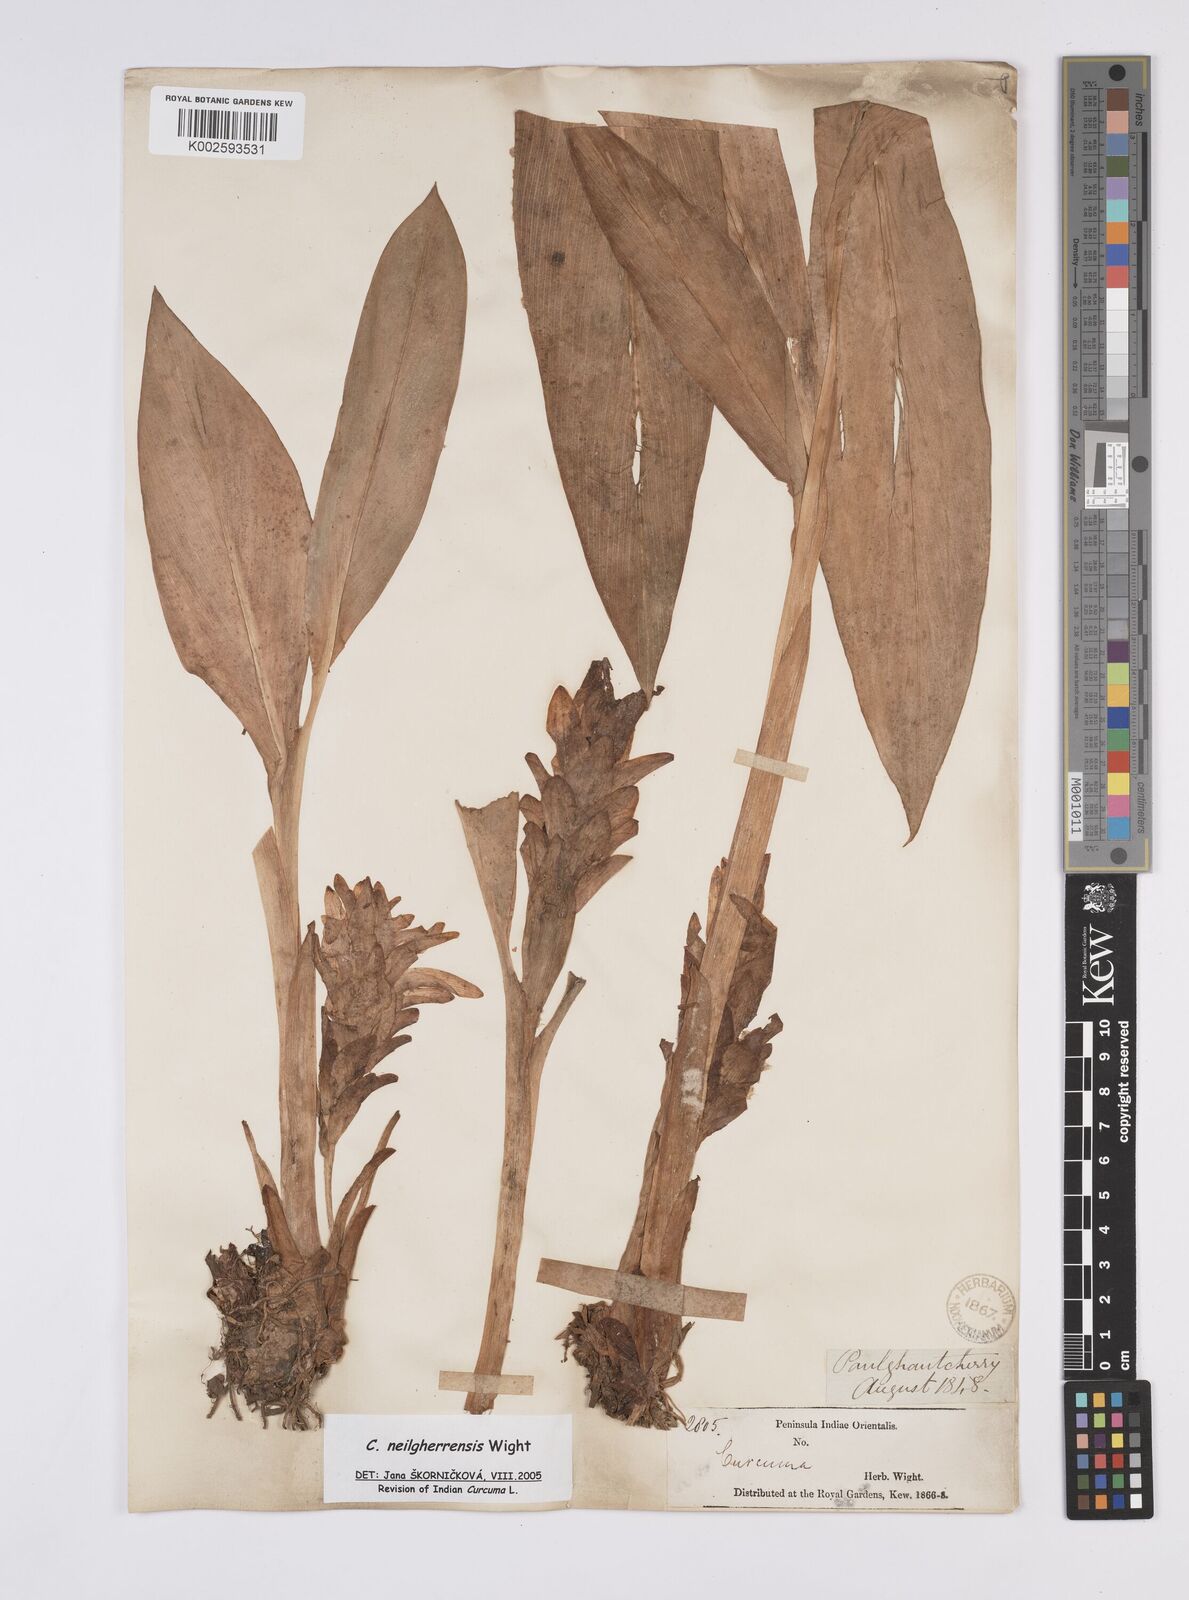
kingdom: Plantae
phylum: Tracheophyta
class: Liliopsida
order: Zingiberales
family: Zingiberaceae
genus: Curcuma
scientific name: Curcuma neilgherrensis
